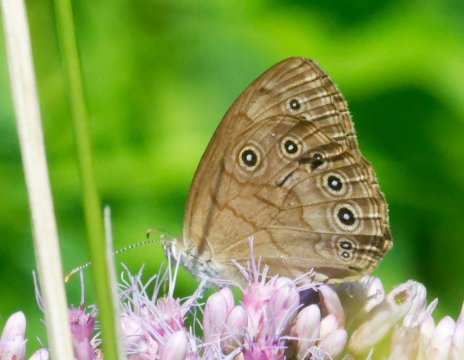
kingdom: Animalia
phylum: Arthropoda
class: Insecta
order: Lepidoptera
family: Nymphalidae
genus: Lethe
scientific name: Lethe eurydice
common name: Eyed Brown
